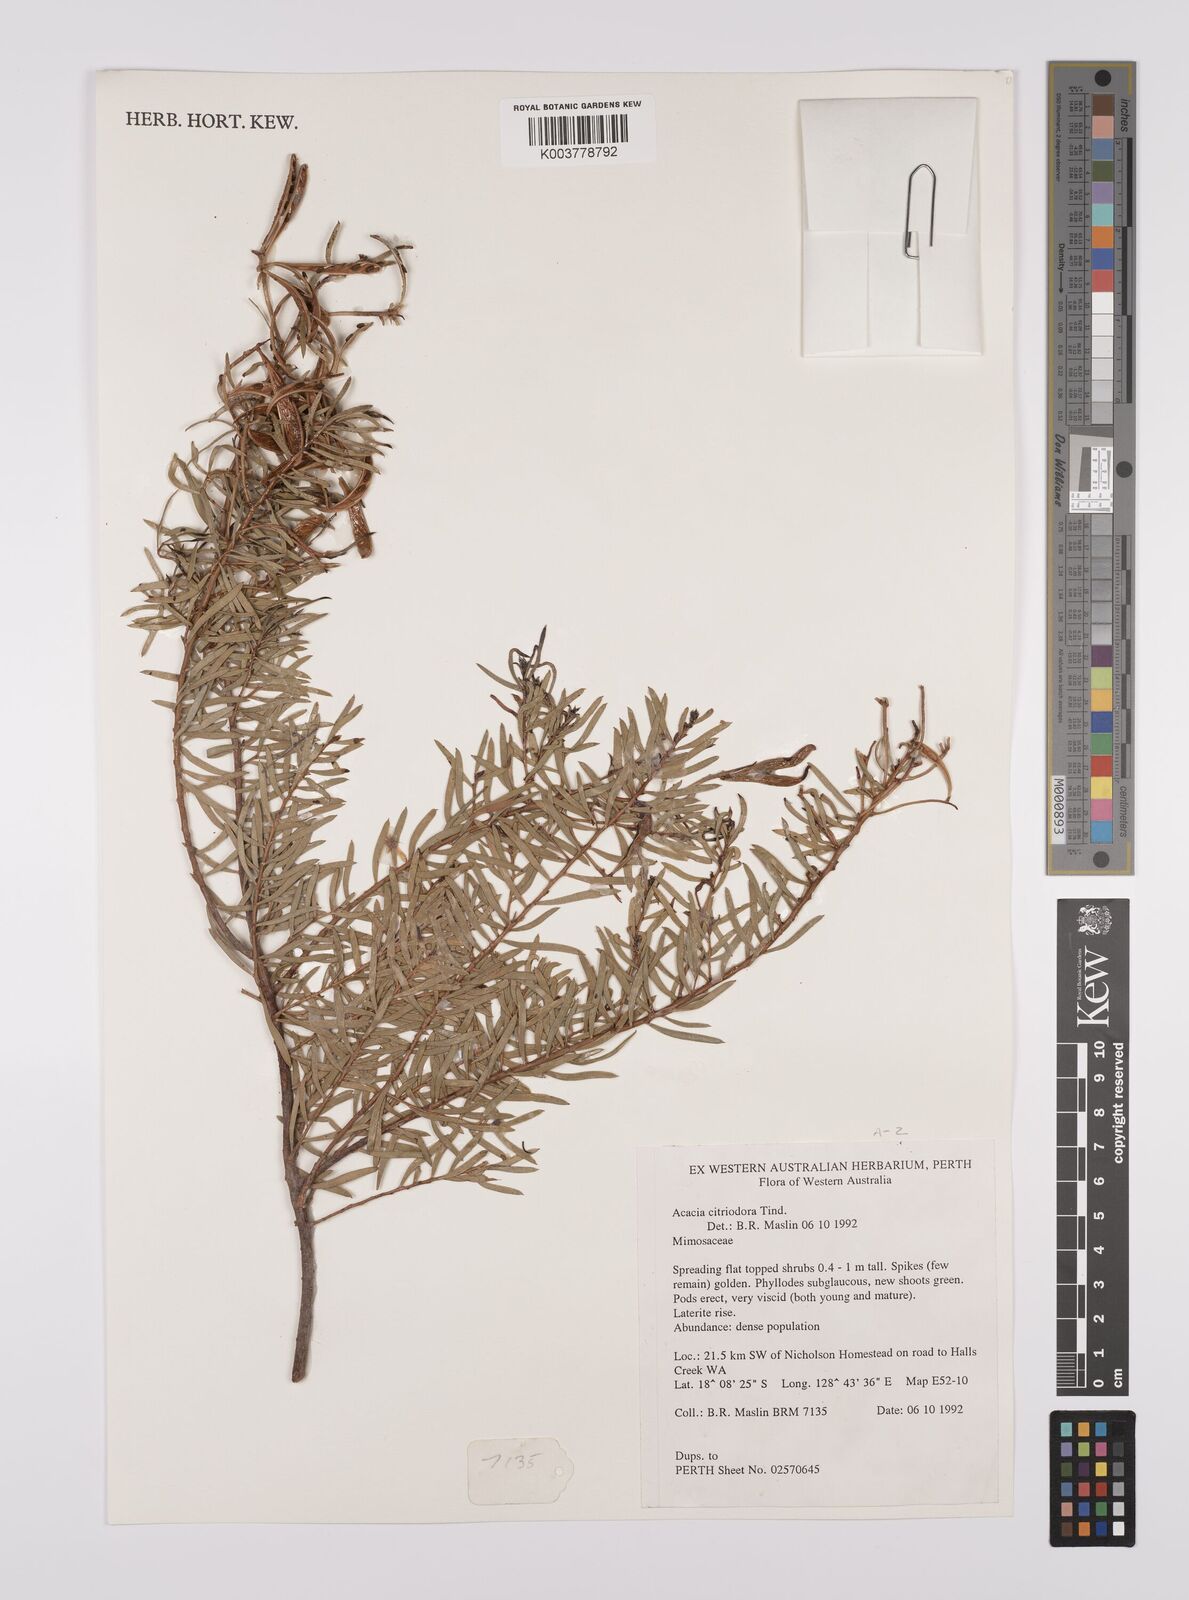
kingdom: Plantae
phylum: Tracheophyta
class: Magnoliopsida
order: Fabales
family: Fabaceae
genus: Acacia
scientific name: Acacia citriodora
